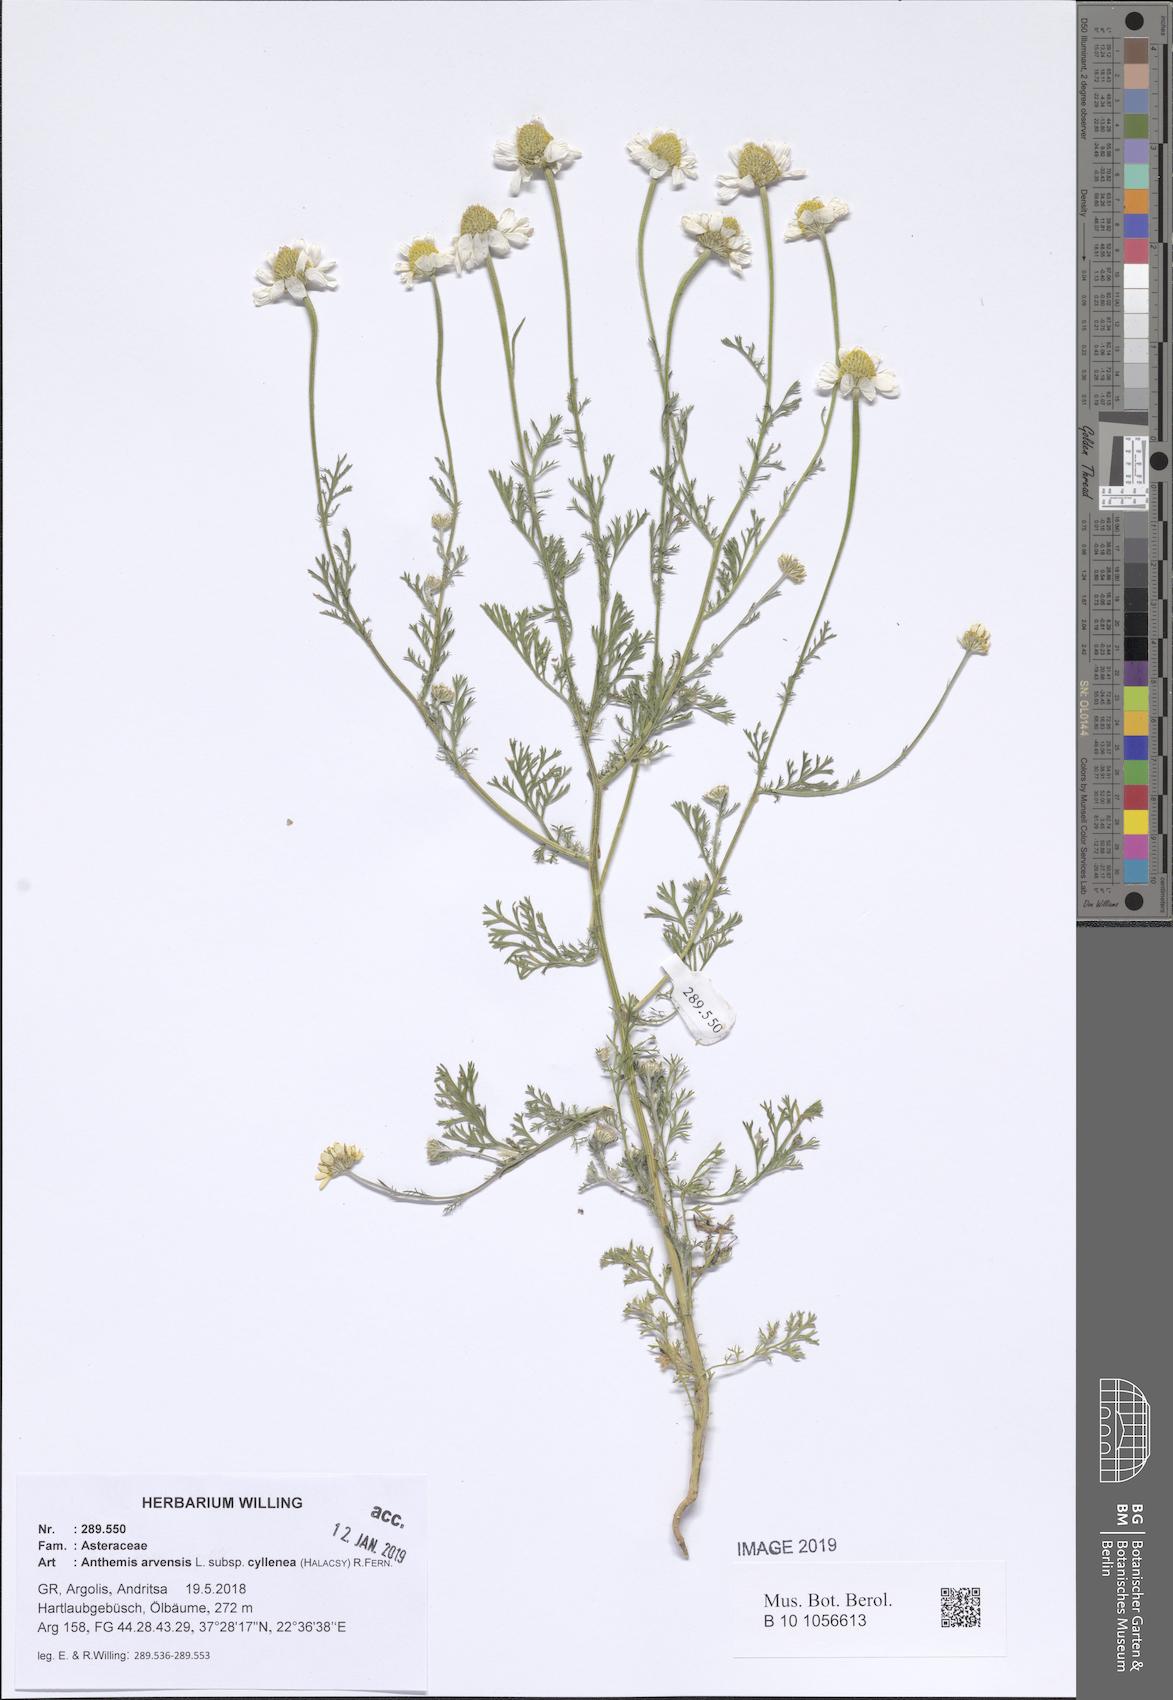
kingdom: Plantae
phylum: Tracheophyta
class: Magnoliopsida
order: Asterales
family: Asteraceae
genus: Anthemis
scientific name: Anthemis arvensis
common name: Corn chamomile
